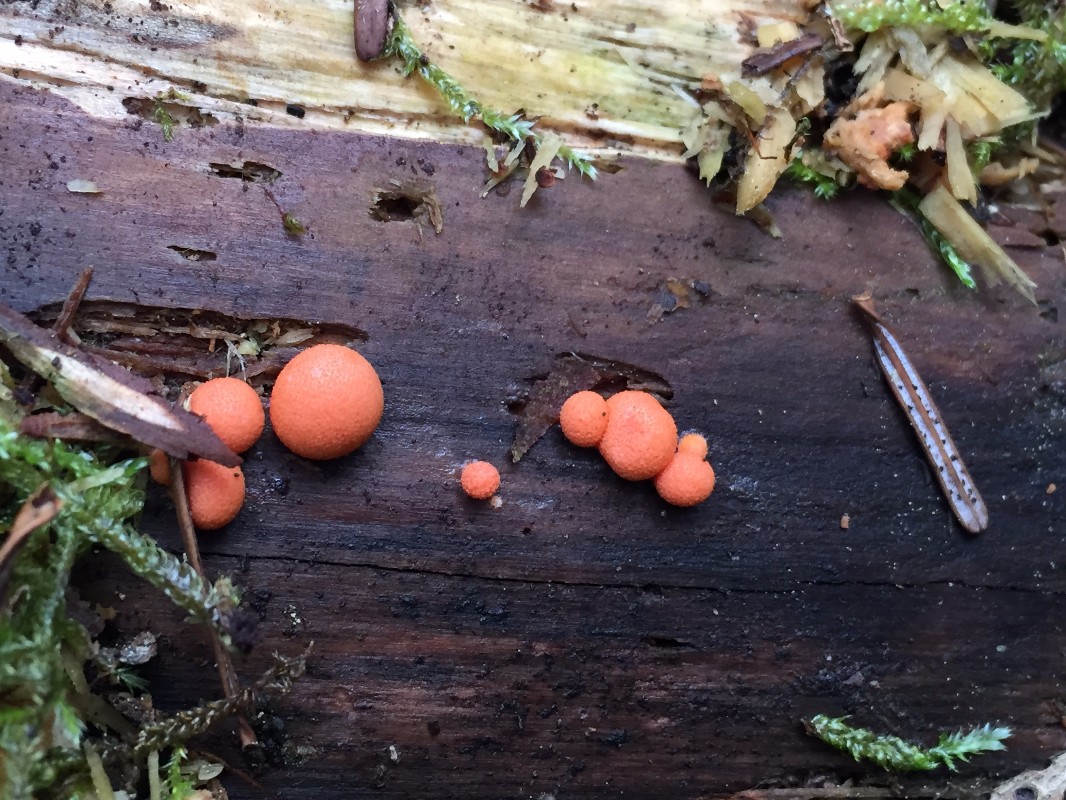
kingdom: Protozoa
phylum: Mycetozoa
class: Myxomycetes
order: Cribrariales
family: Tubiferaceae
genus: Lycogala
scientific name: Lycogala epidendrum
